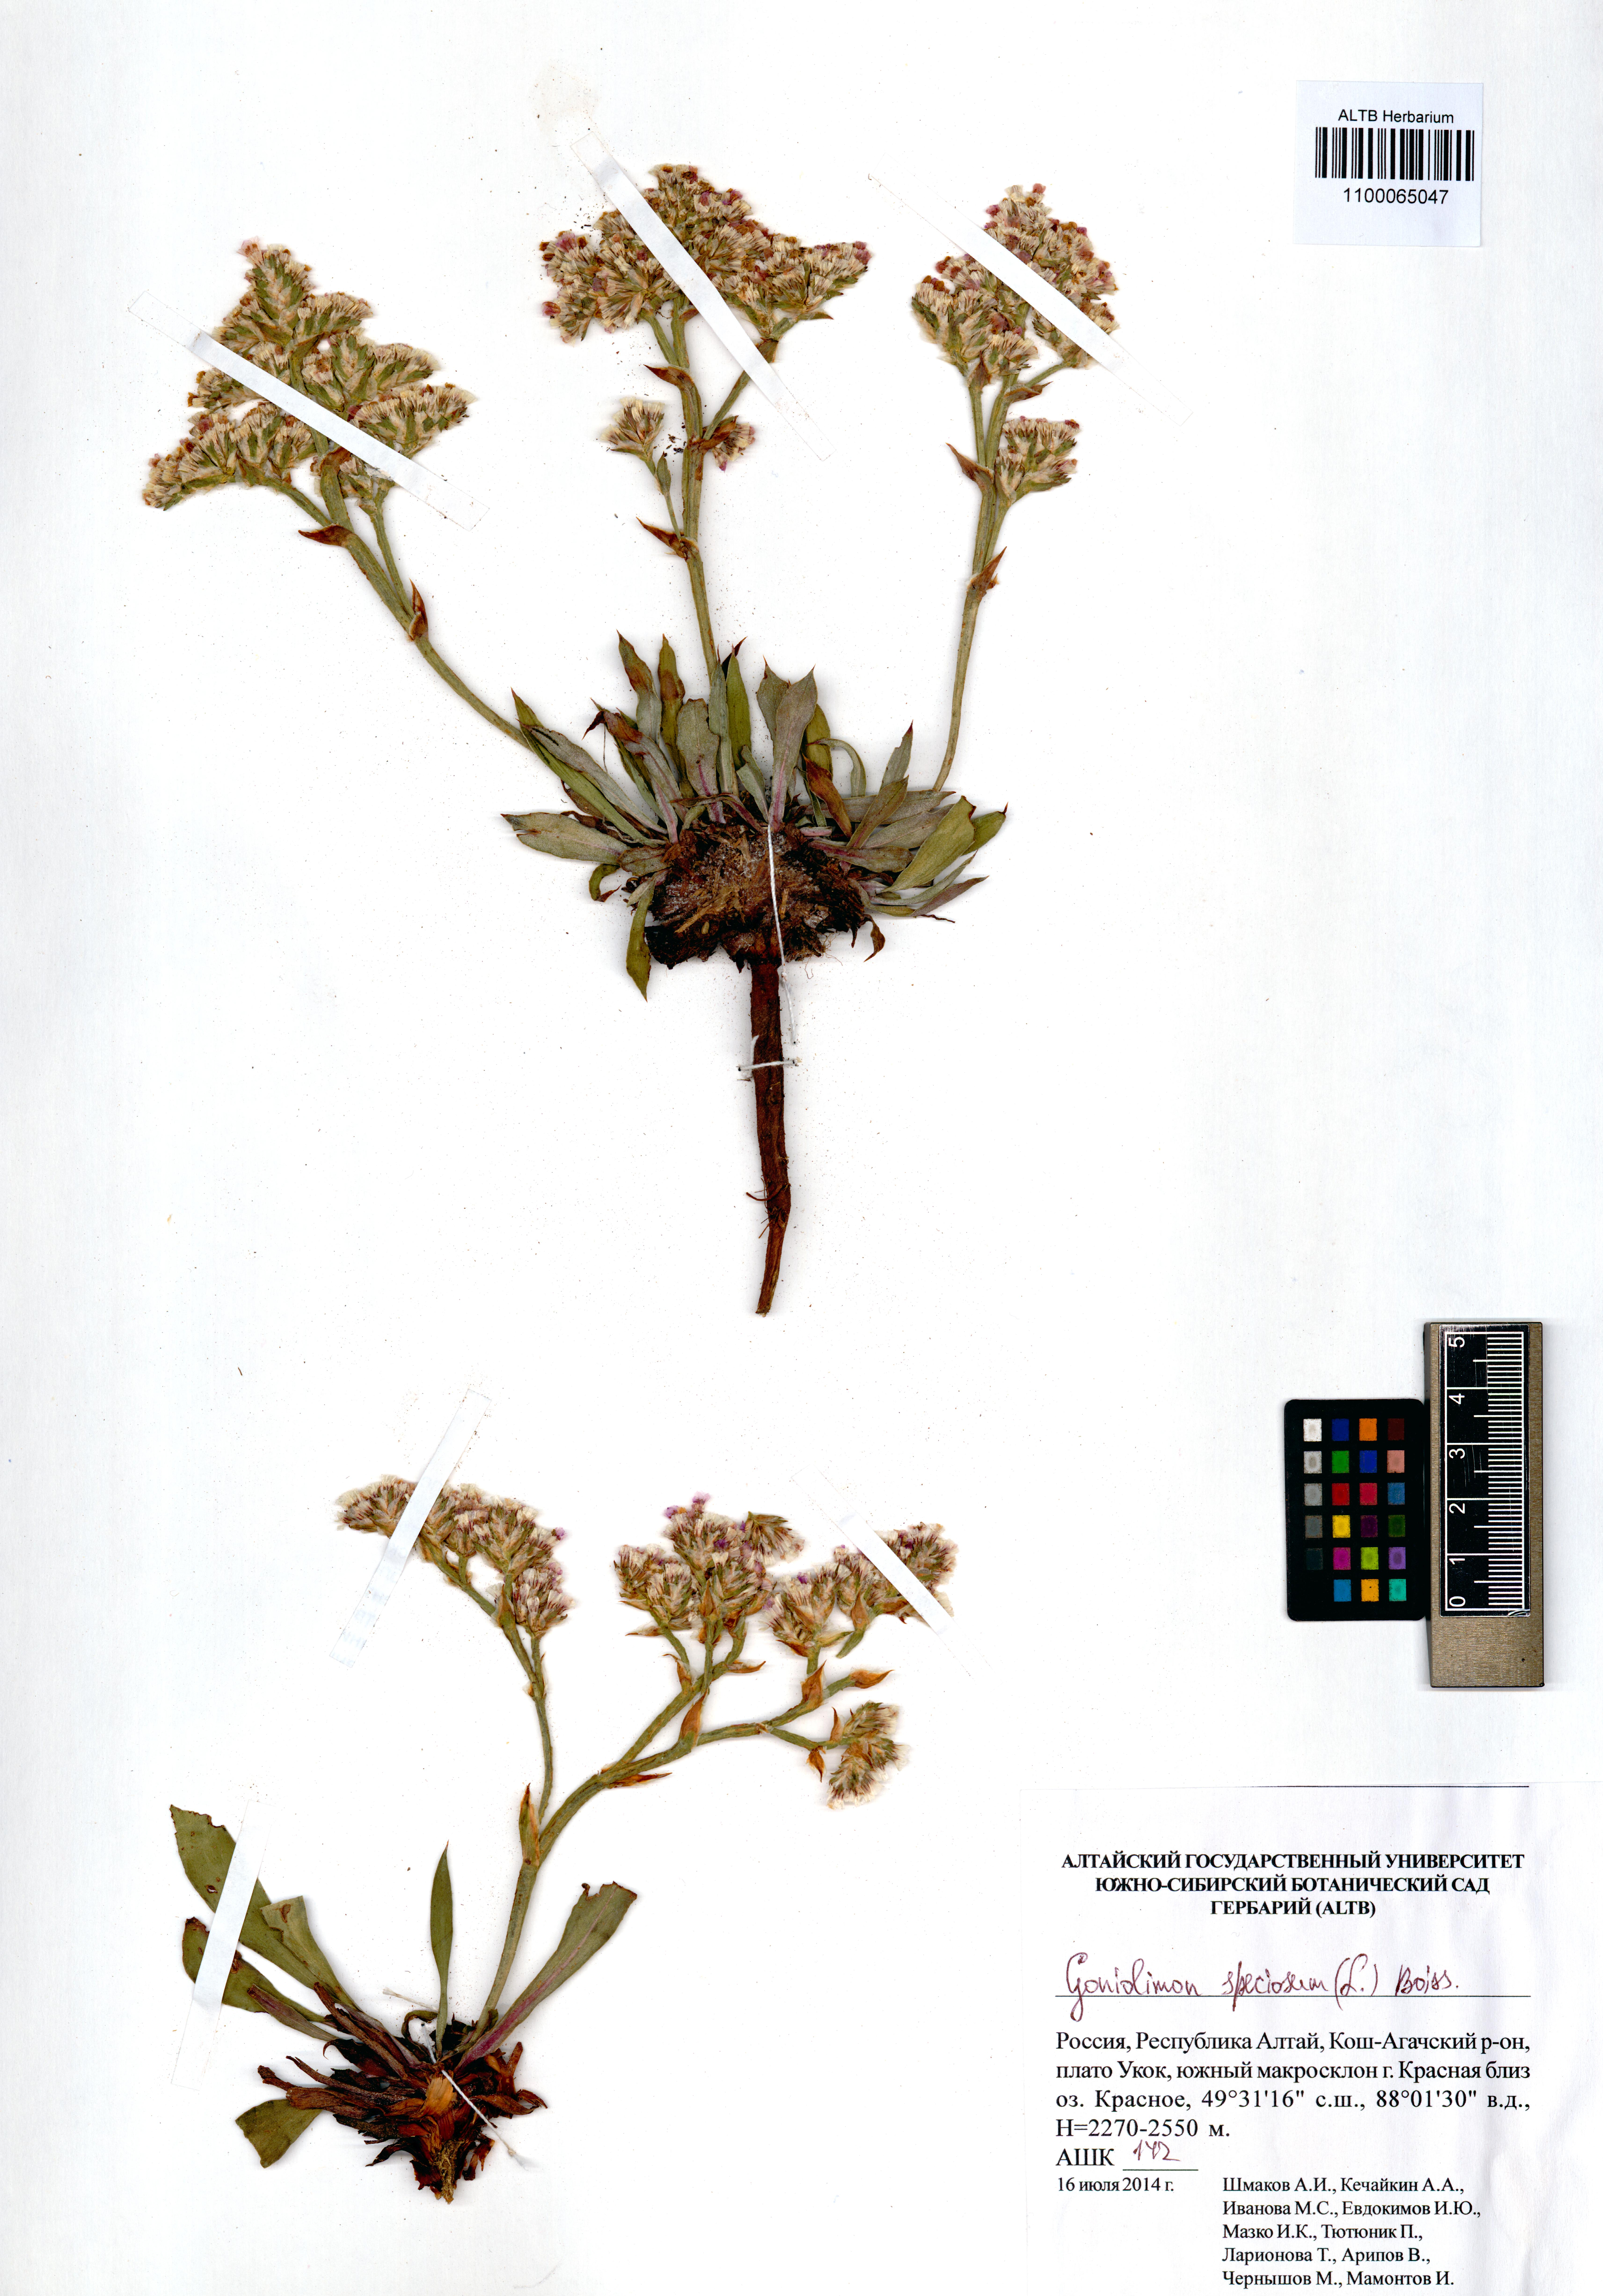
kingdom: Plantae
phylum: Tracheophyta
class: Magnoliopsida
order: Caryophyllales
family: Plumbaginaceae
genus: Goniolimon
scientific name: Goniolimon speciosum
